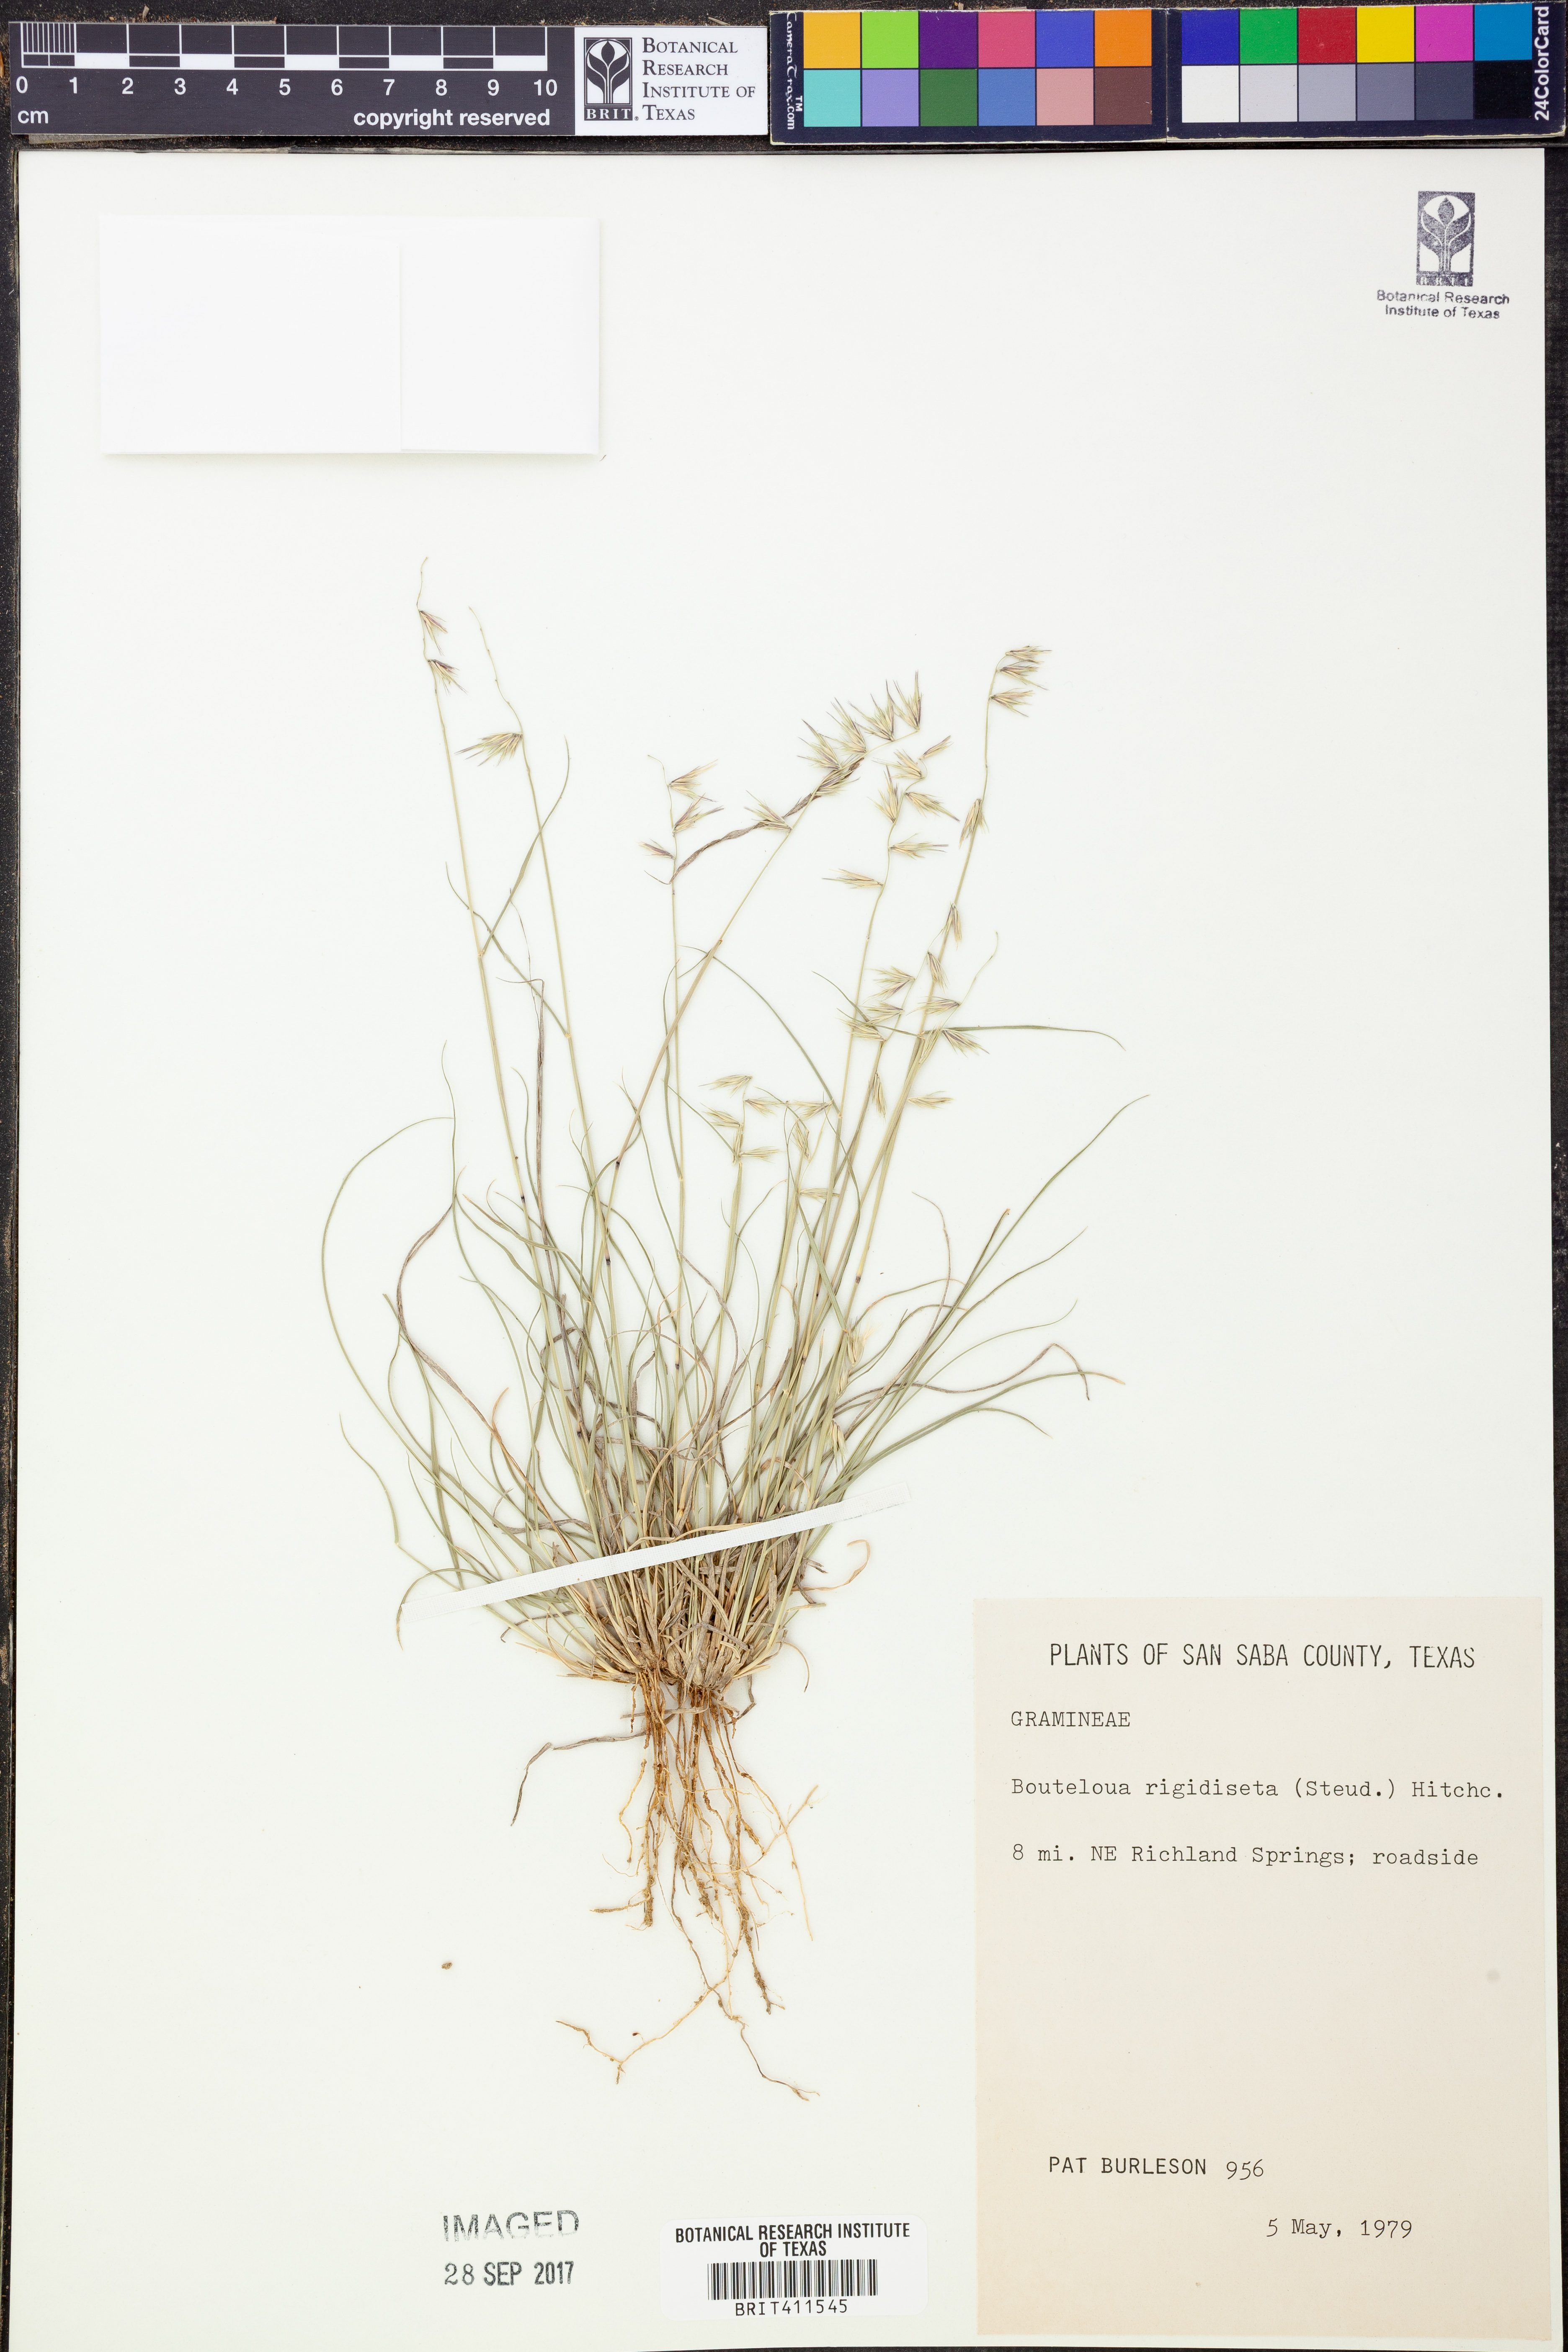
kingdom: Plantae
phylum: Tracheophyta
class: Liliopsida
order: Poales
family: Poaceae
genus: Bouteloua
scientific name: Bouteloua rigidiseta
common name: Texas grama
